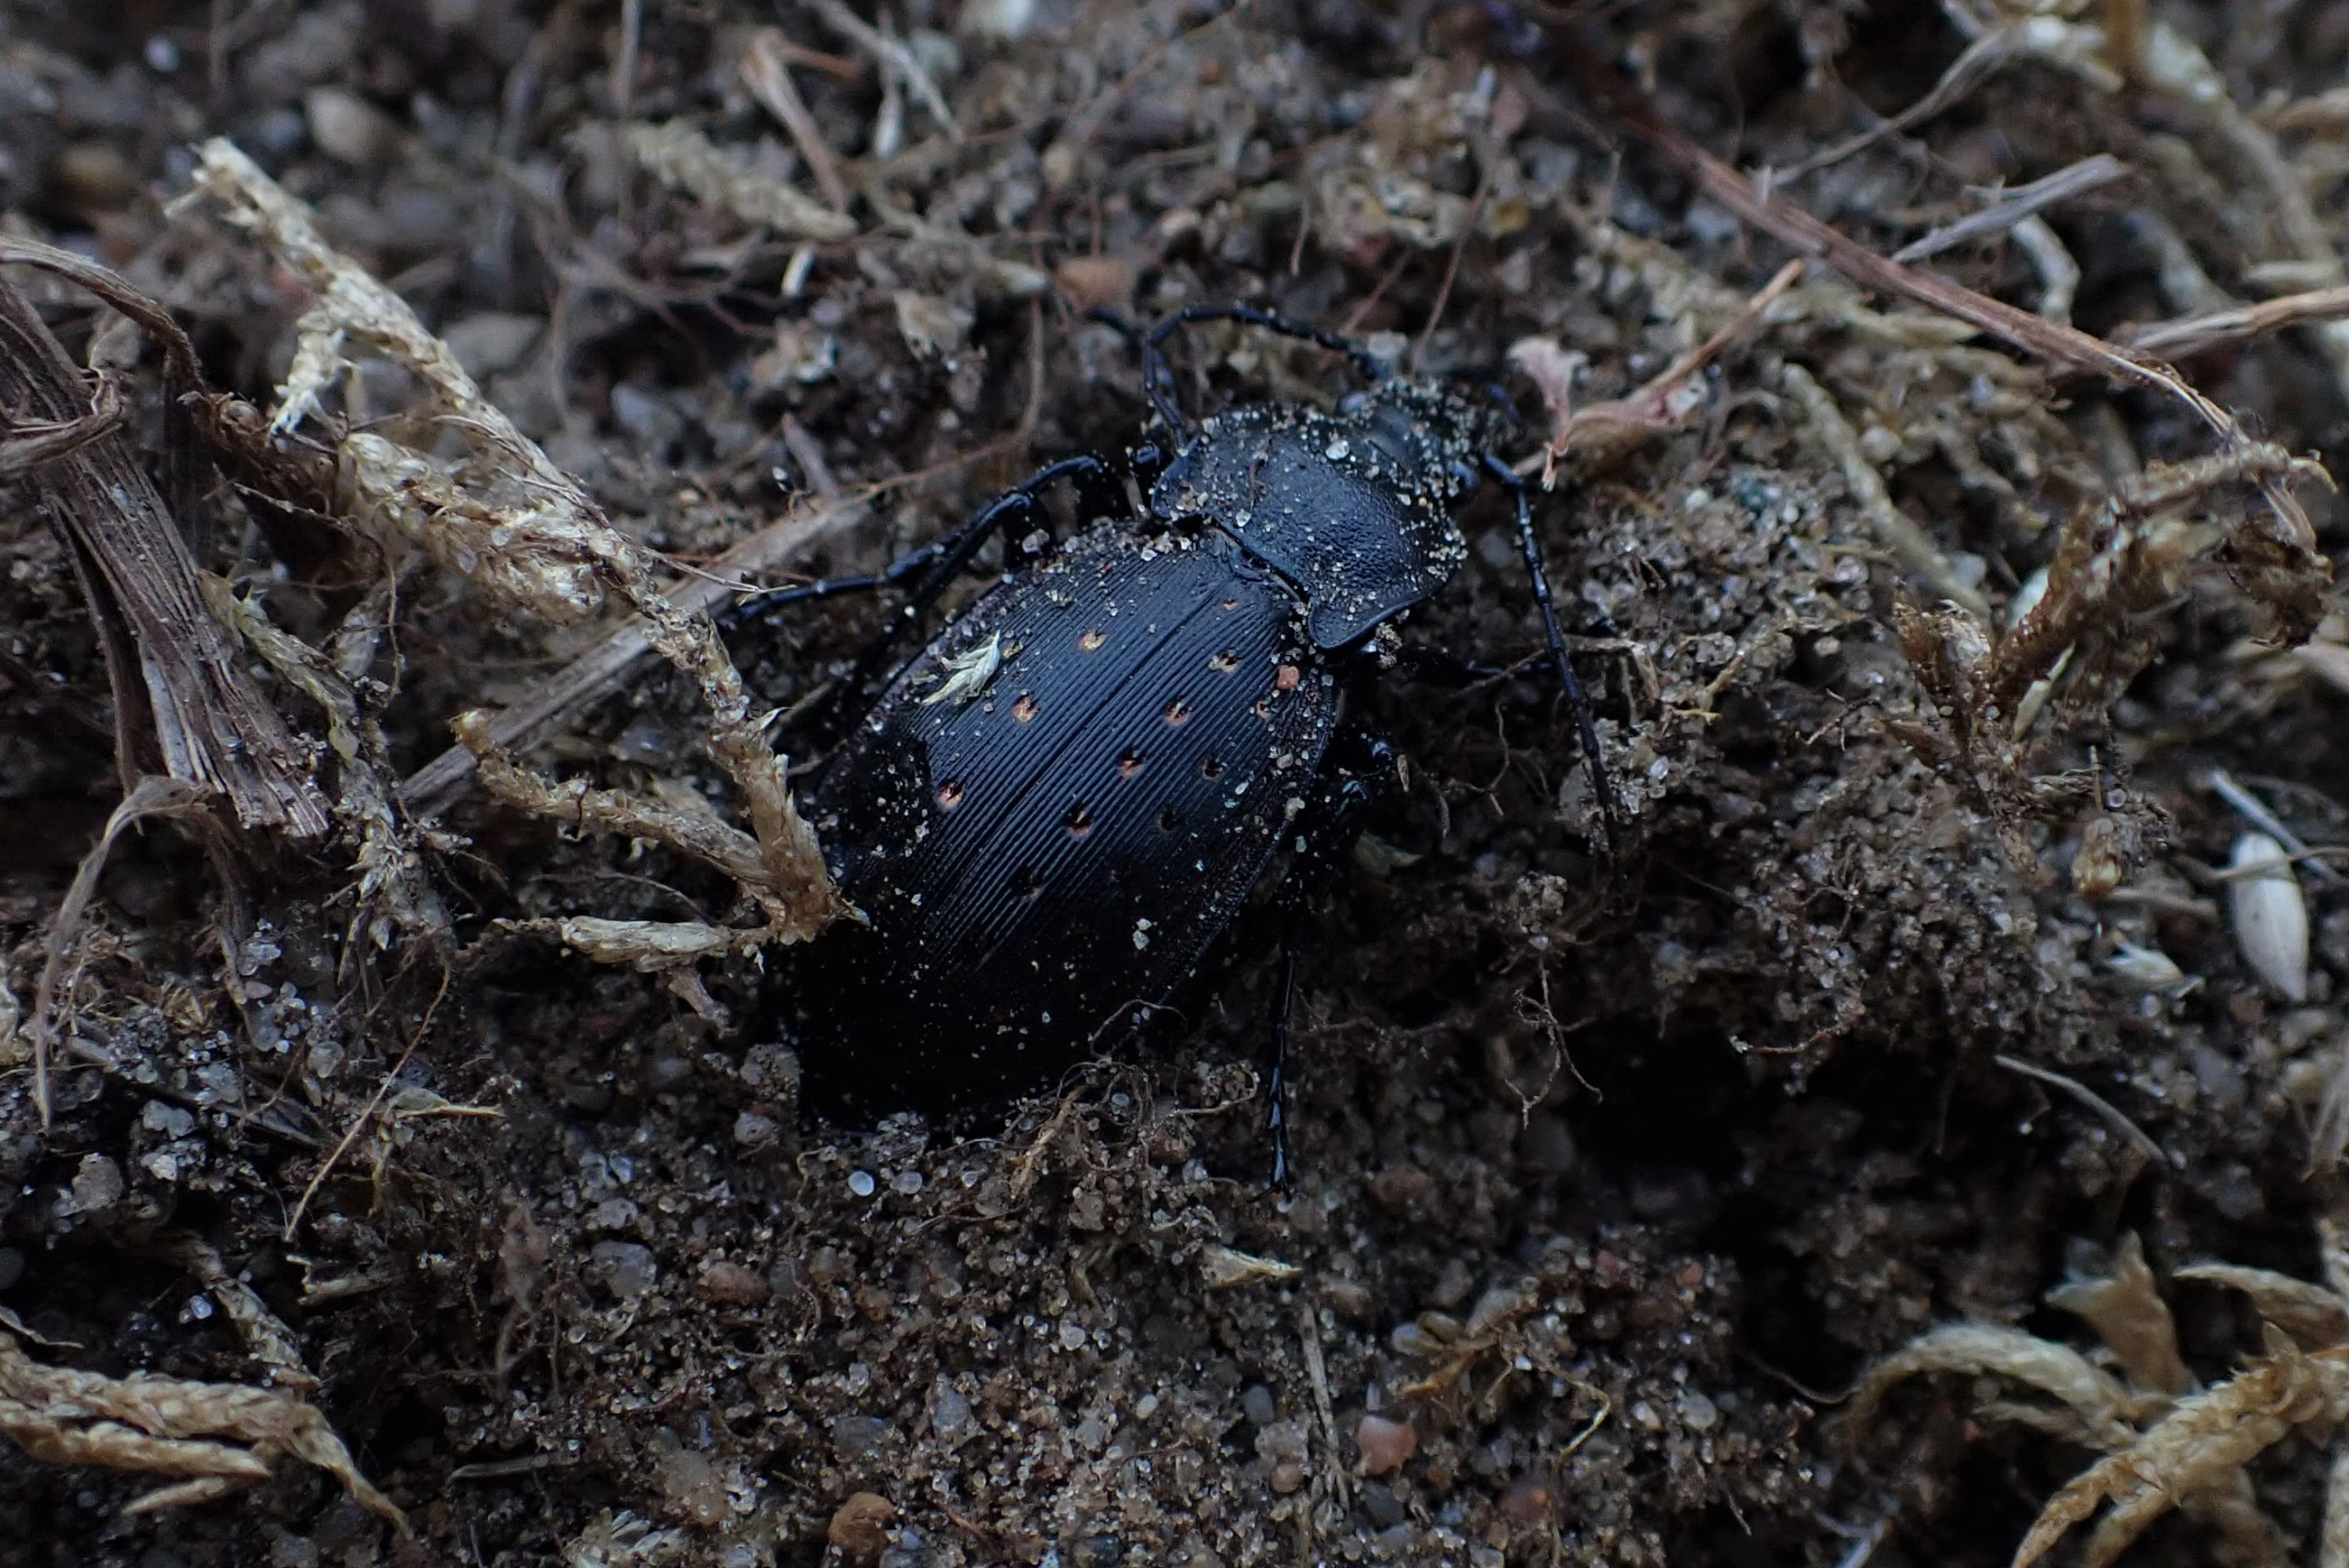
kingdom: Animalia
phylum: Arthropoda
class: Insecta
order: Coleoptera
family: Carabidae
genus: Carabus
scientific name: Carabus hortensis
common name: Guldpletløber
